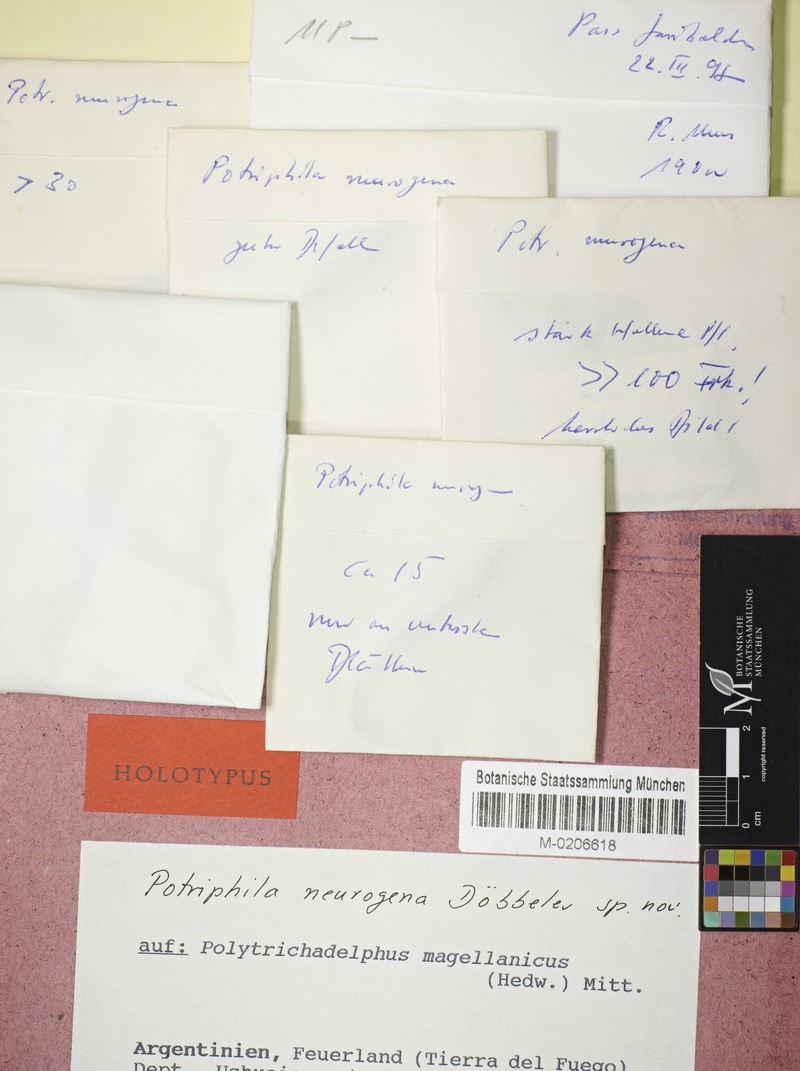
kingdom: Fungi
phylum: Ascomycota
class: Lecanoromycetes
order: Ostropales
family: Odontotremataceae
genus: Potriphila
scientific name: Potriphila neurogena
